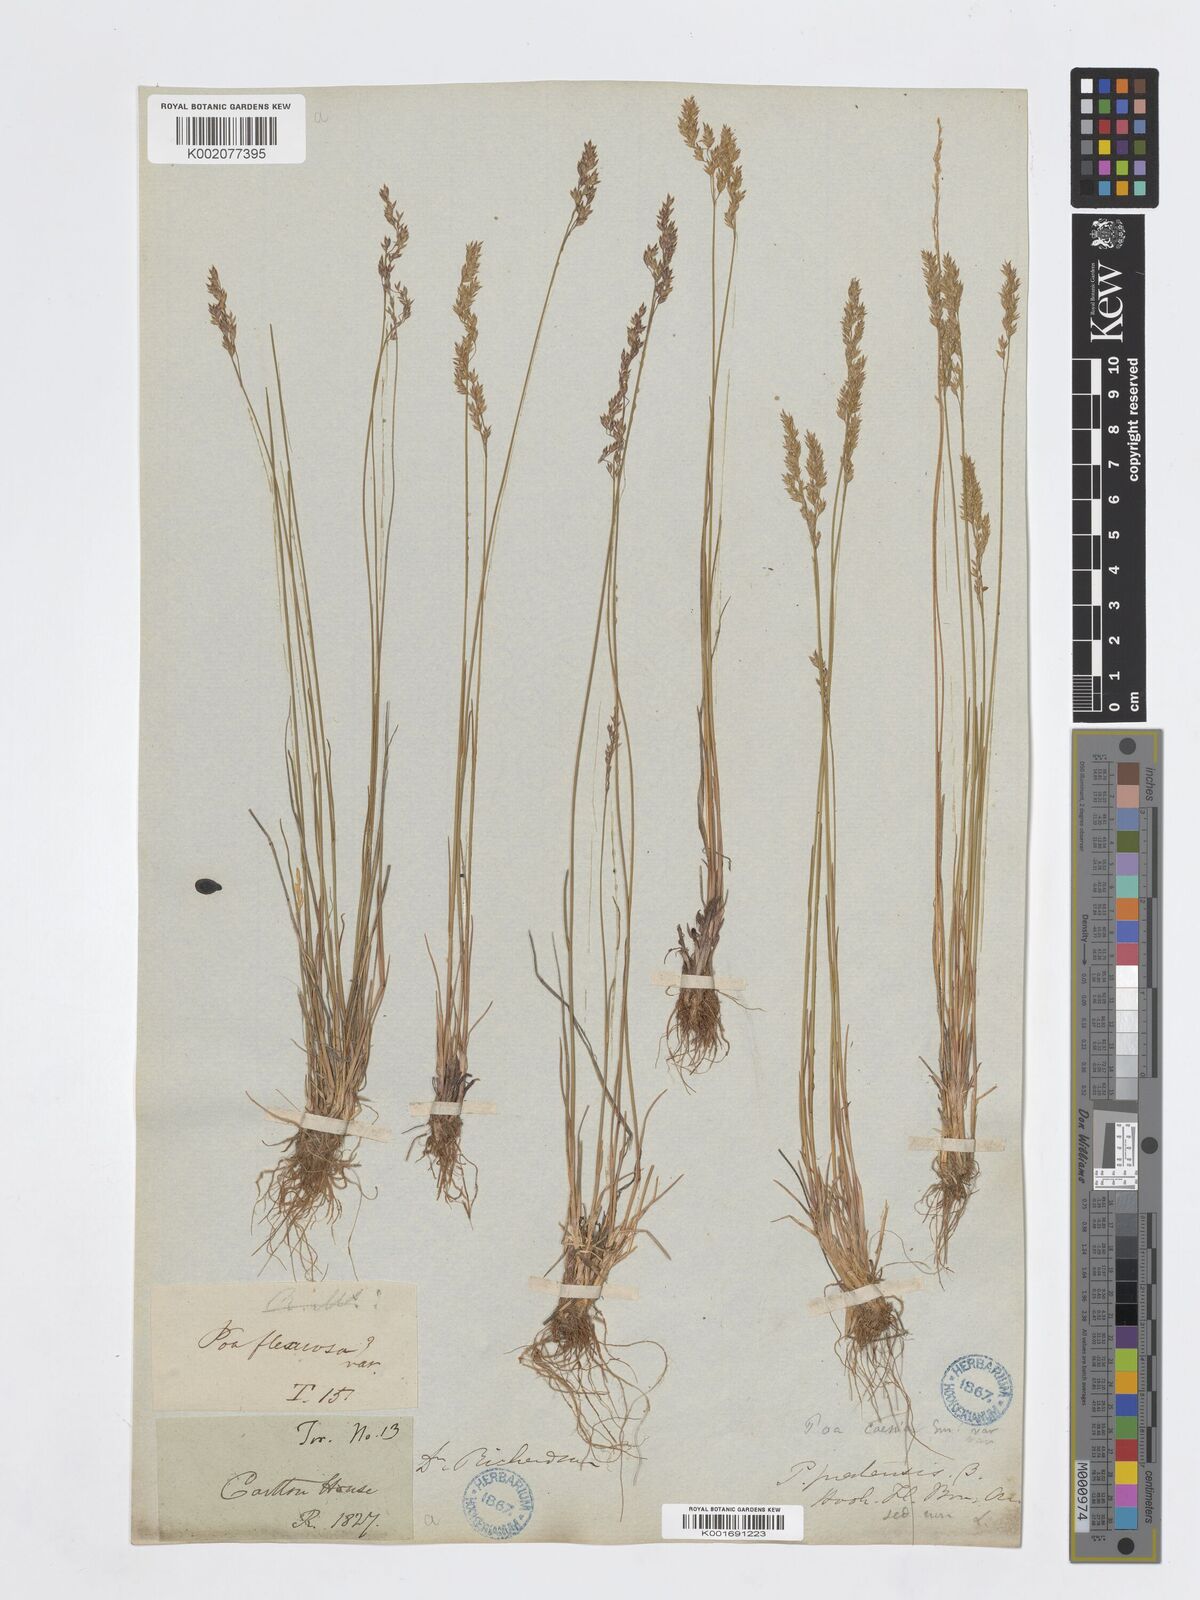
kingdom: Plantae
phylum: Tracheophyta
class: Liliopsida
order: Poales
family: Poaceae
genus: Poa
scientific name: Poa glauca
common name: Glaucous bluegrass
